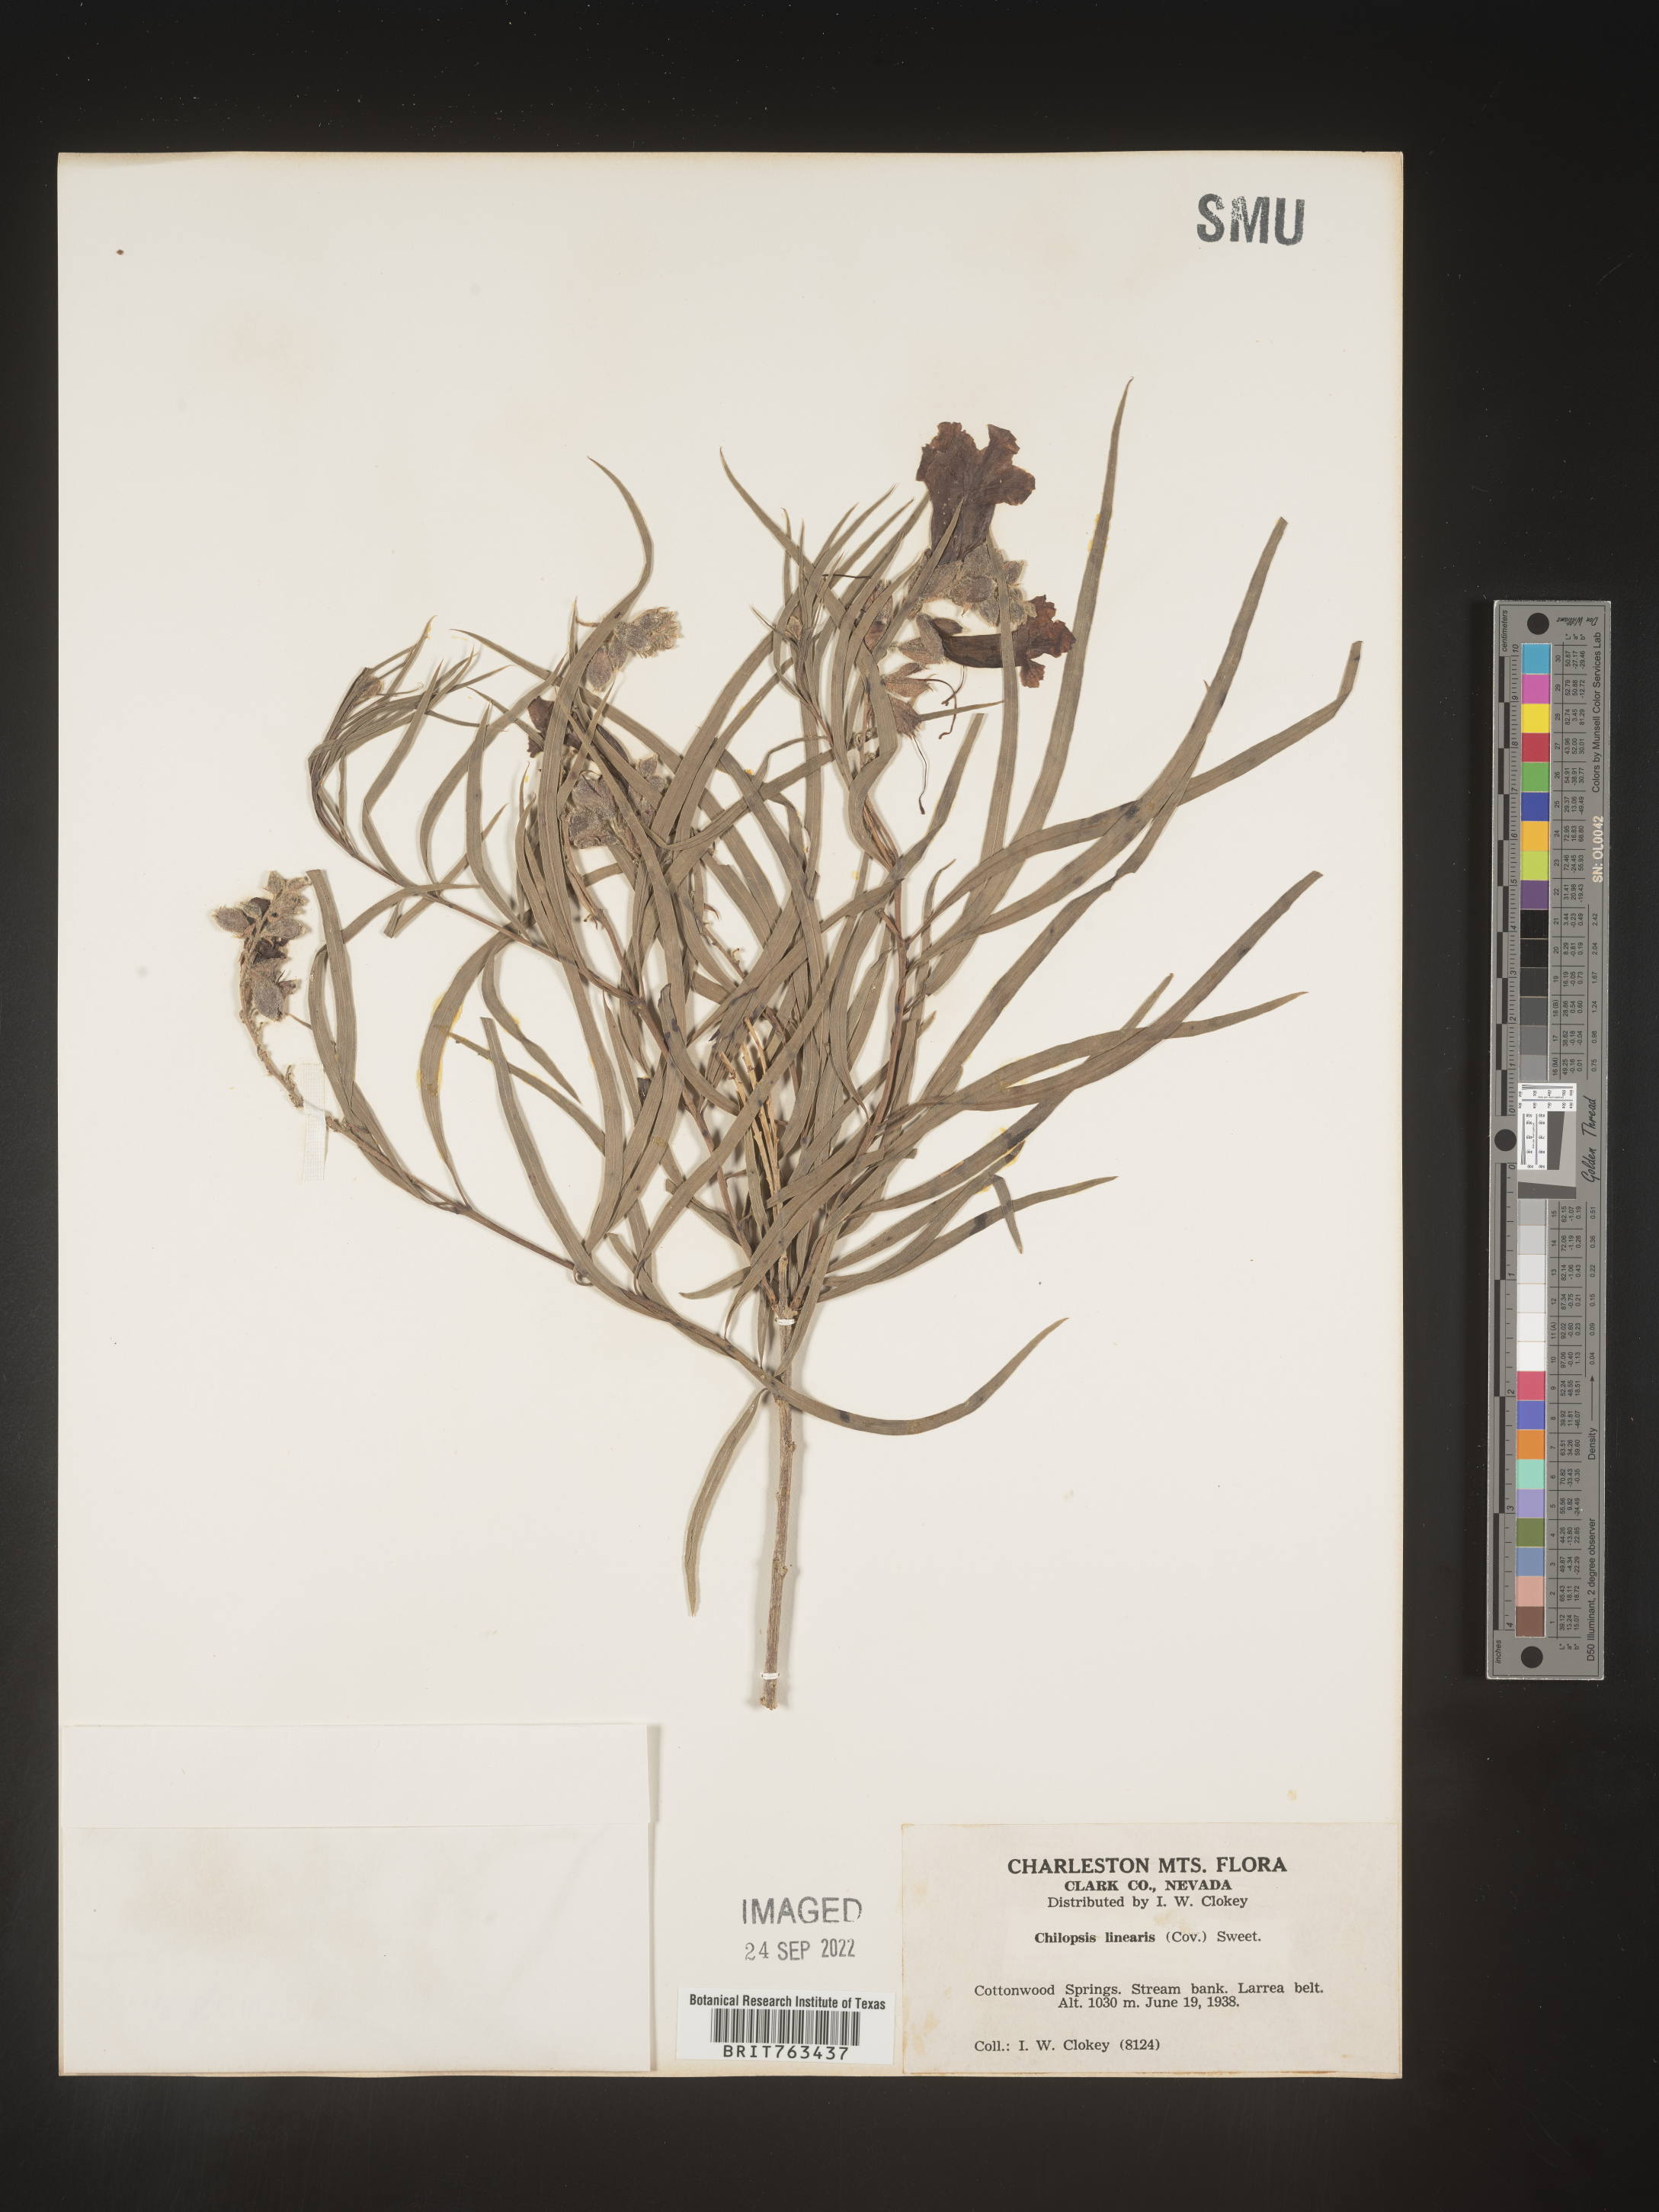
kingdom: Plantae
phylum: Tracheophyta
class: Magnoliopsida
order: Lamiales
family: Bignoniaceae
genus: Chilopsis
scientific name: Chilopsis linearis
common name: Desert-willow
